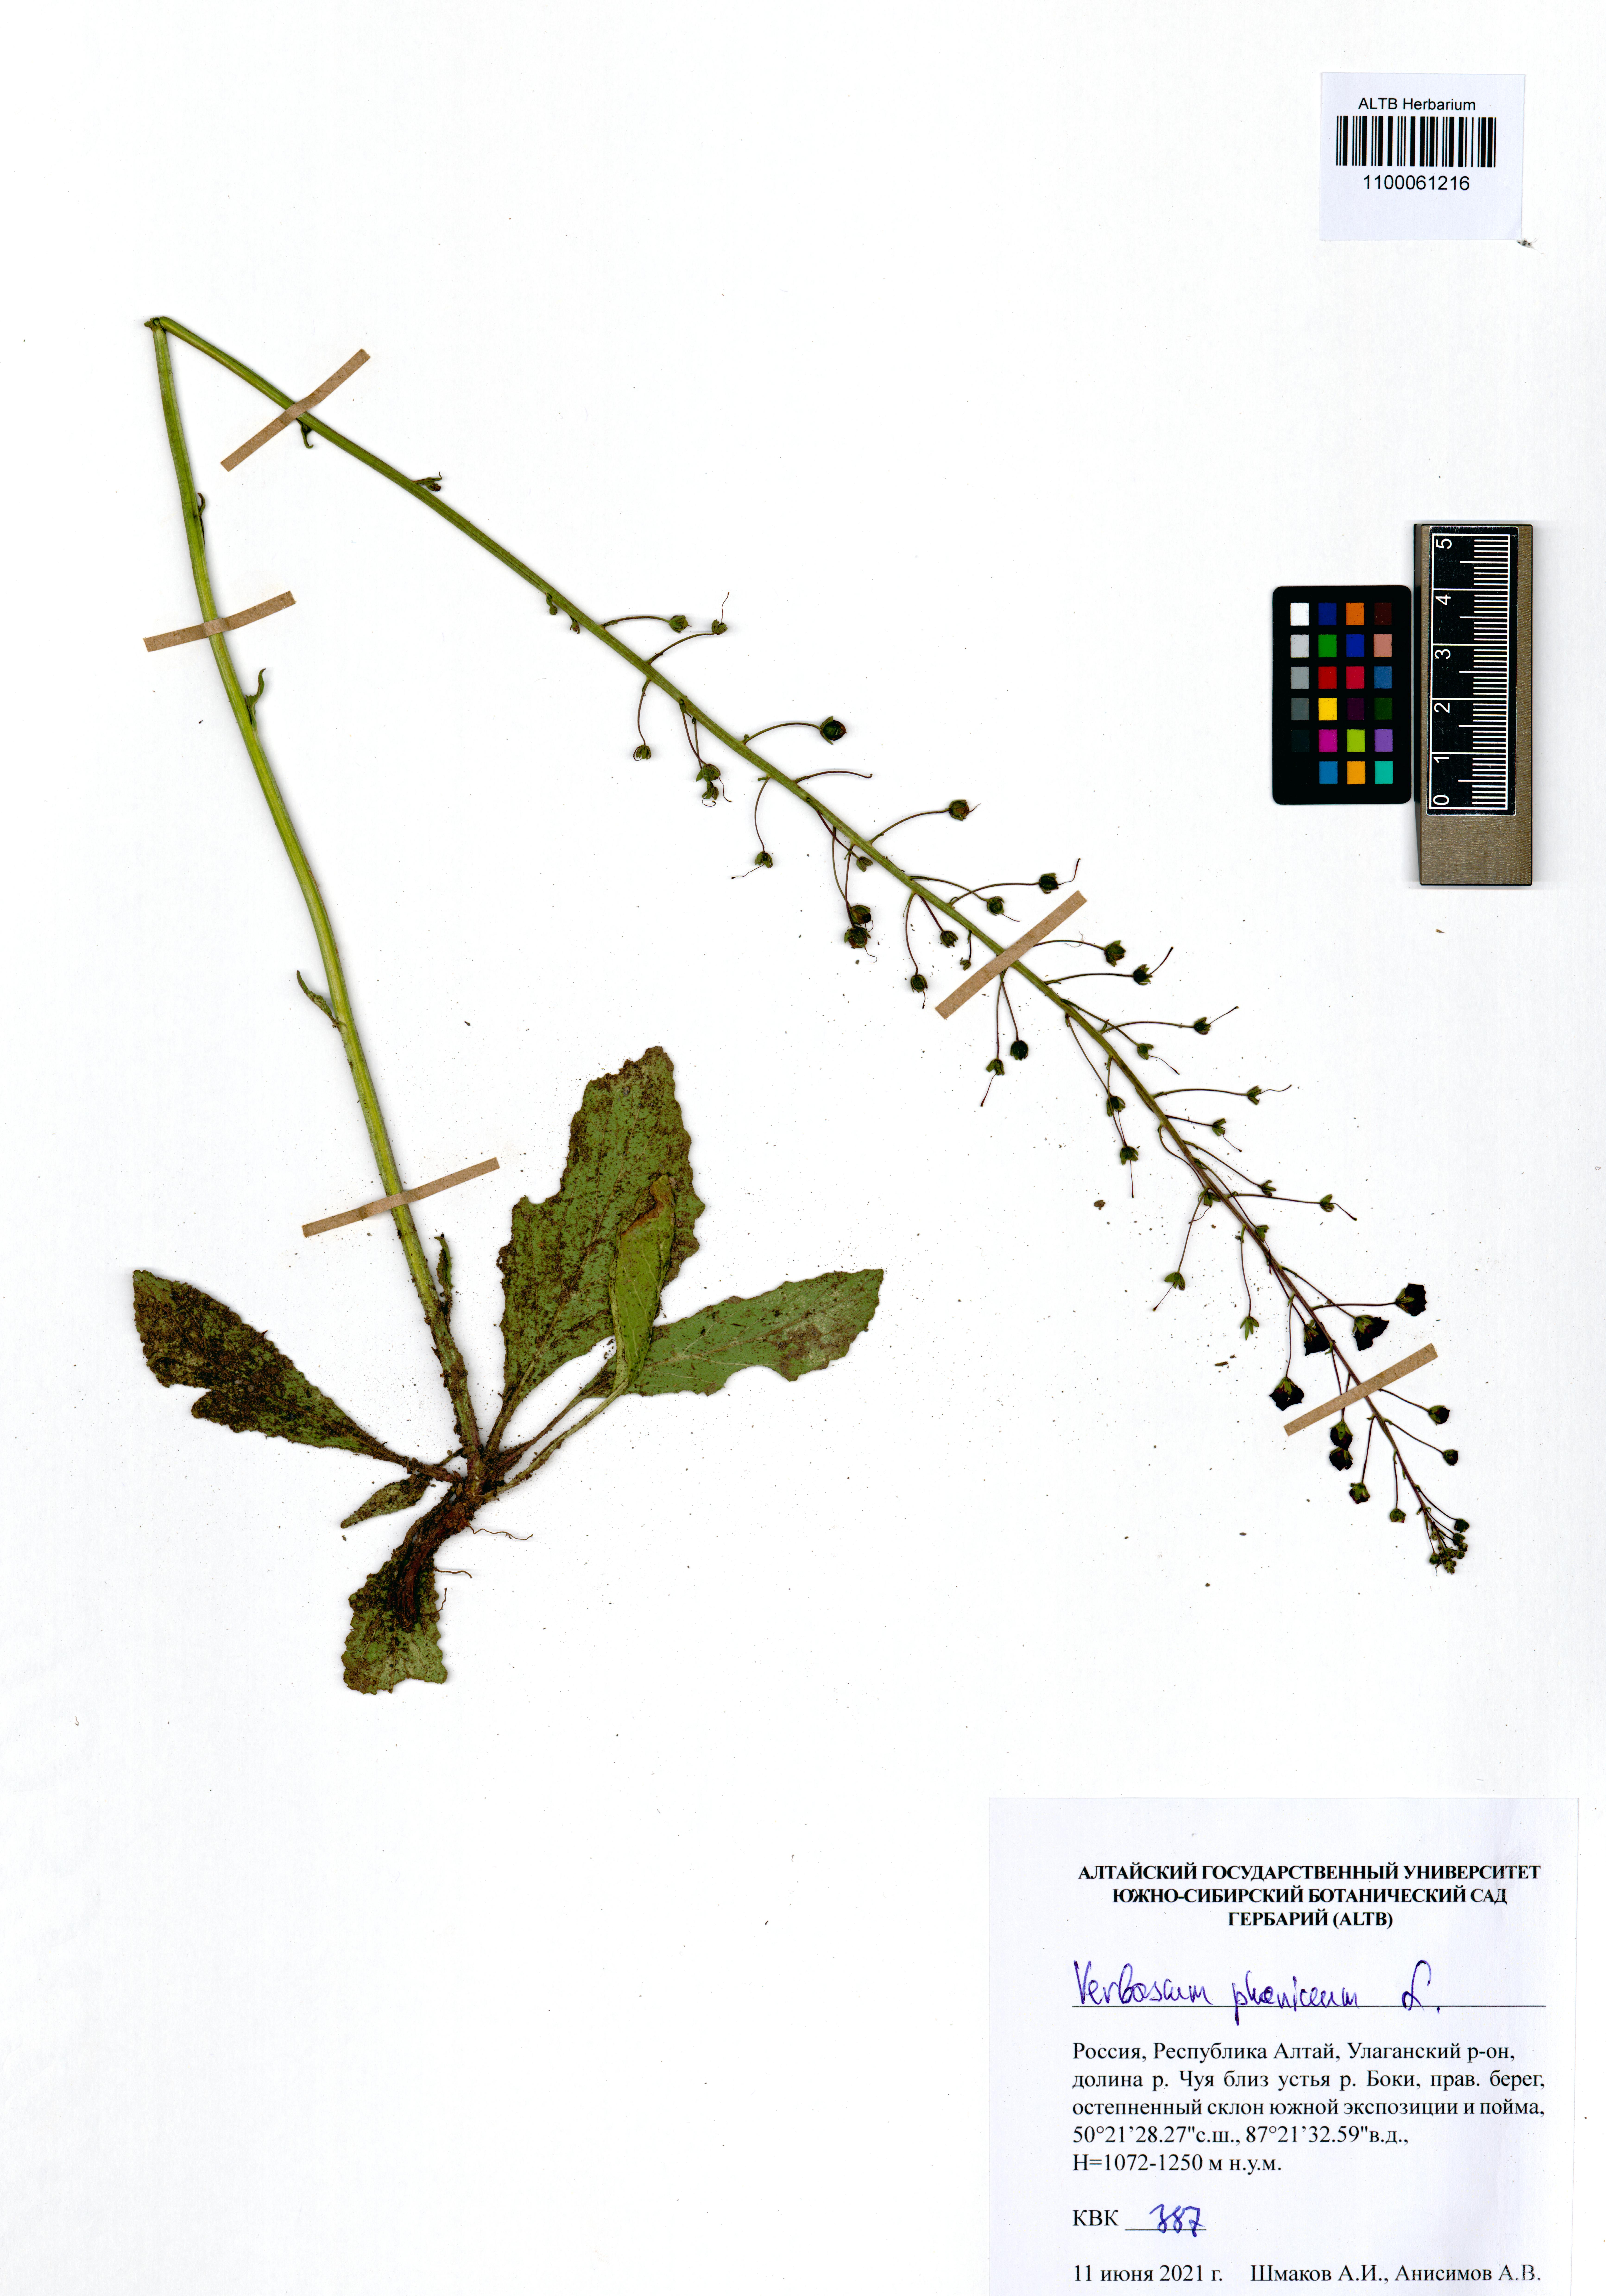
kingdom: Plantae
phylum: Tracheophyta
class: Magnoliopsida
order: Lamiales
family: Scrophulariaceae
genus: Verbascum
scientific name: Verbascum phoeniceum
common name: Purple mullein
